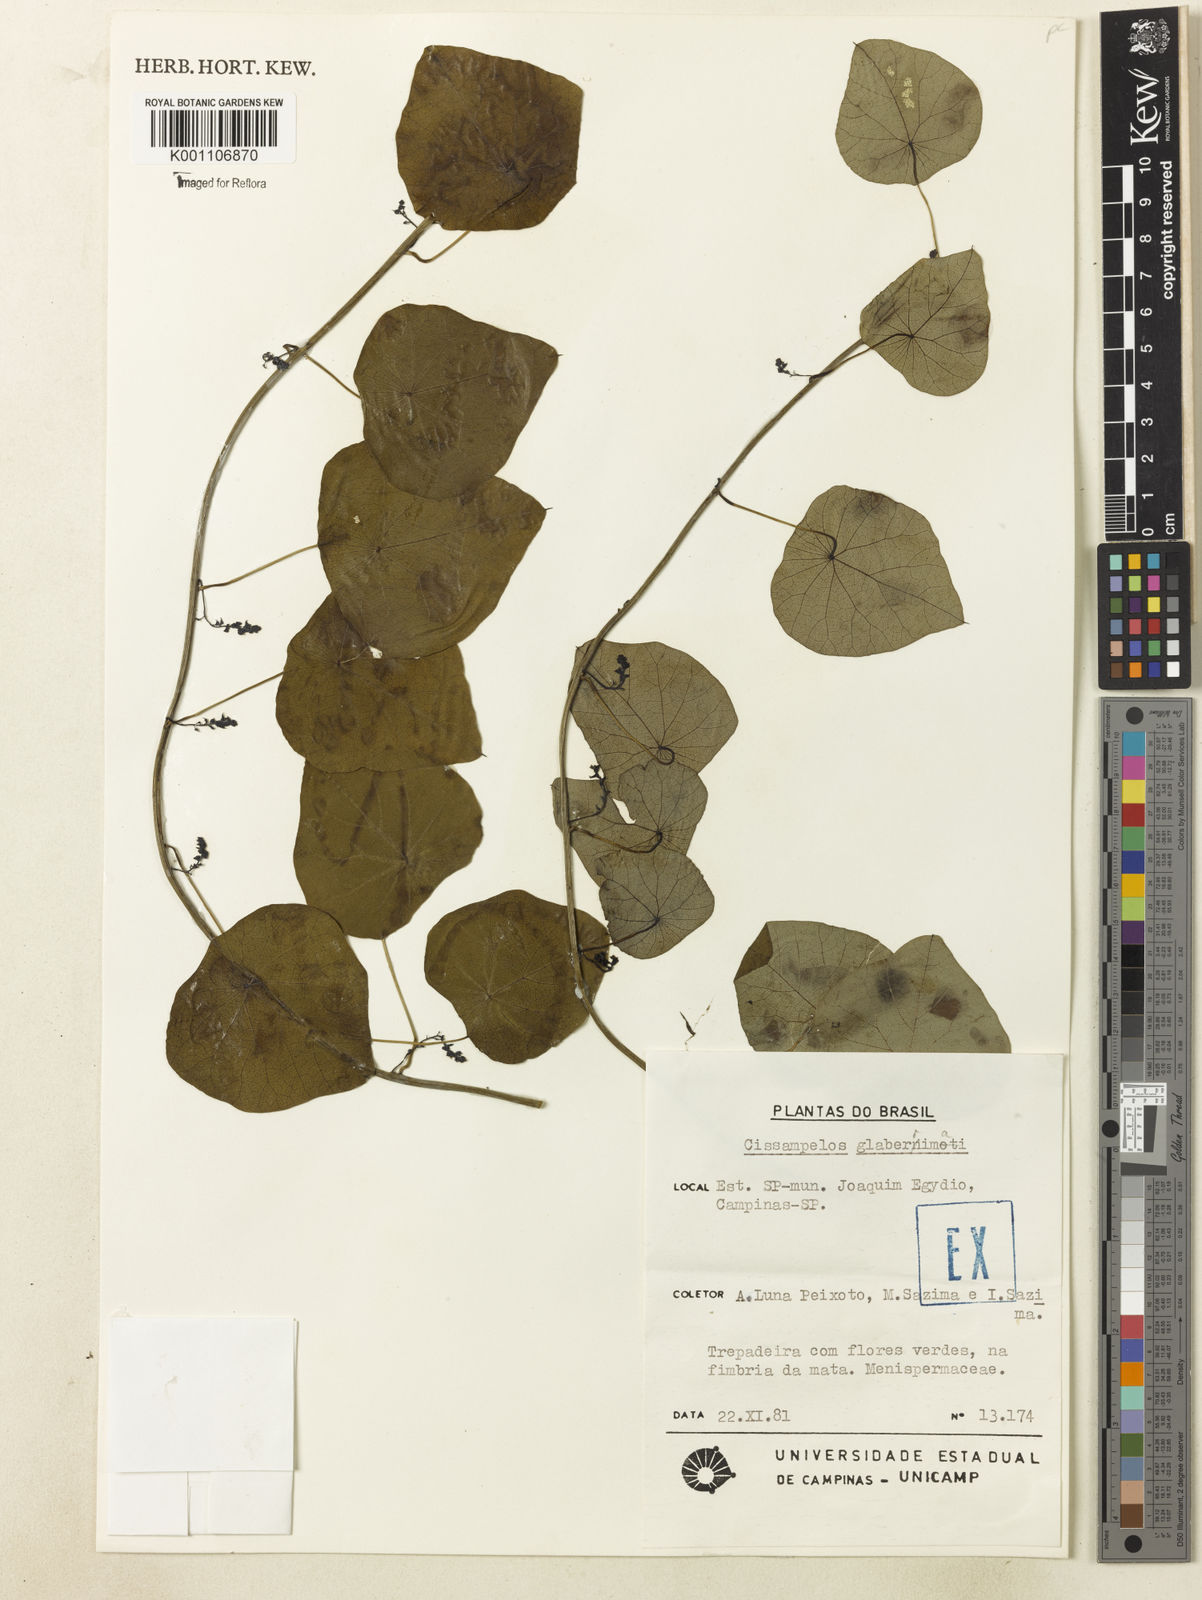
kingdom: Plantae
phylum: Tracheophyta
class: Magnoliopsida
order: Ranunculales
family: Menispermaceae
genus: Cissampelos
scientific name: Cissampelos glaberrima
